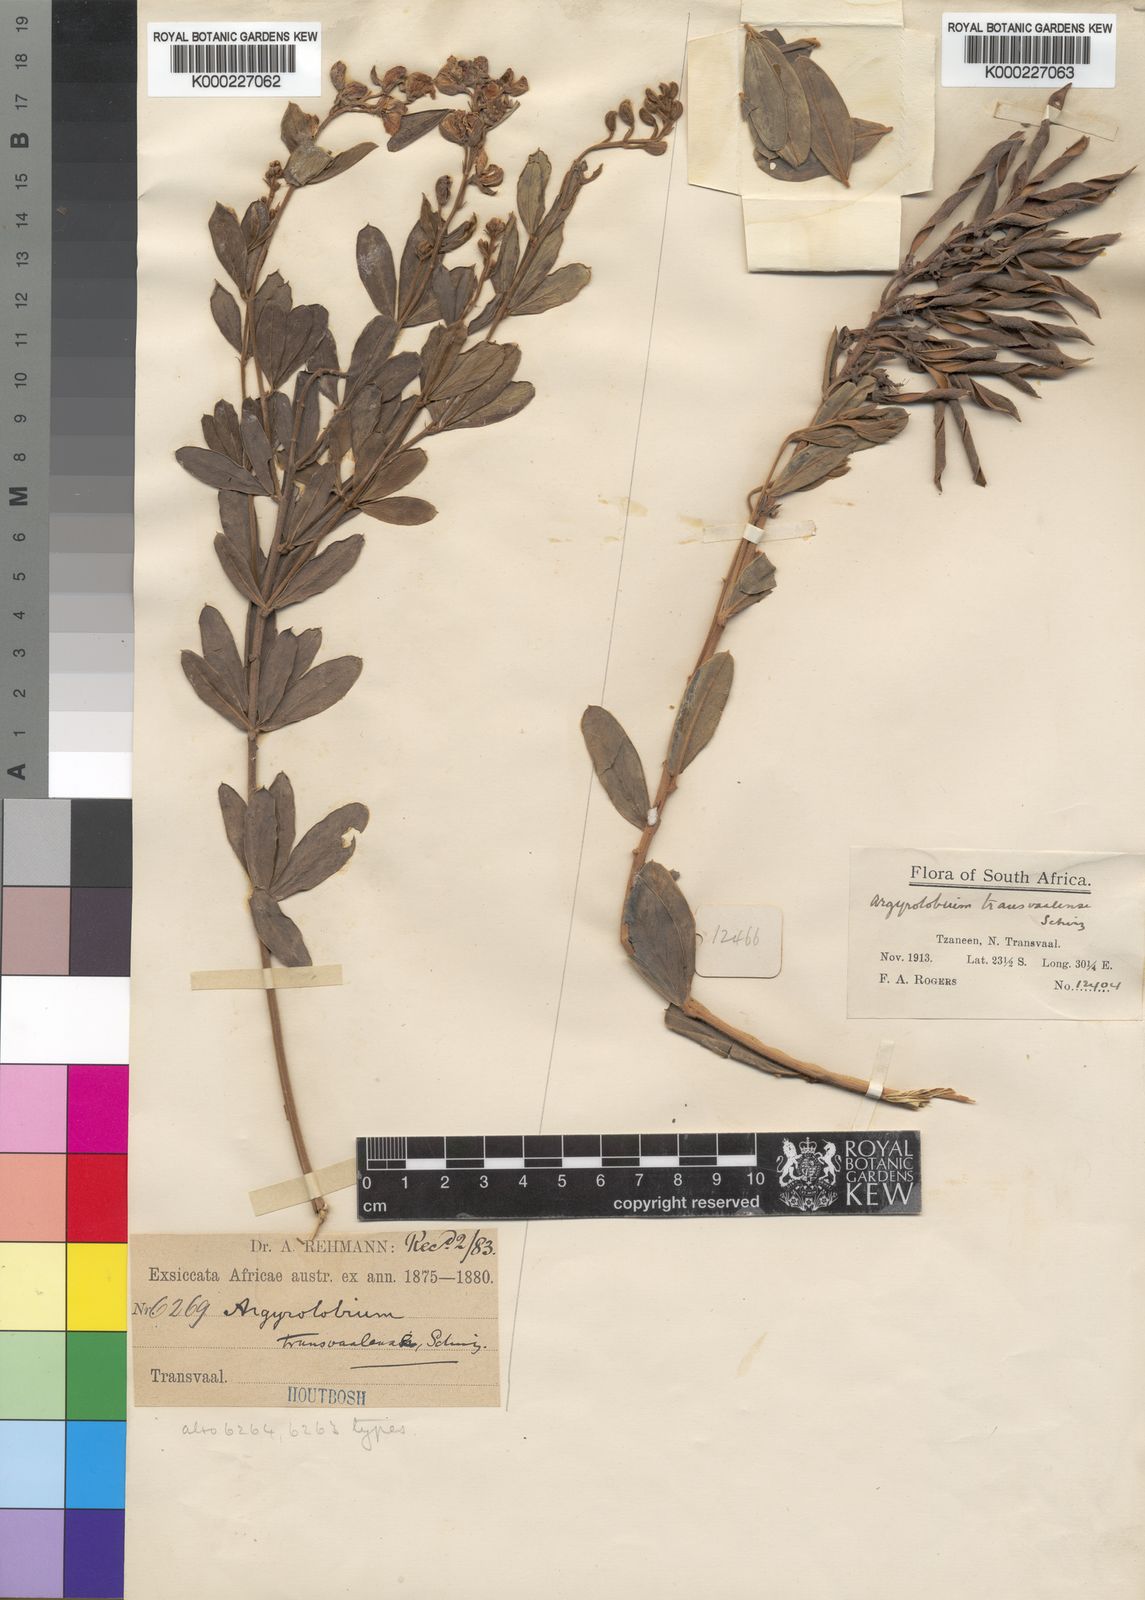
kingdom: Plantae
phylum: Tracheophyta
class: Magnoliopsida
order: Fabales
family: Fabaceae
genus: Argyrolobium
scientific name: Argyrolobium transvaalense
